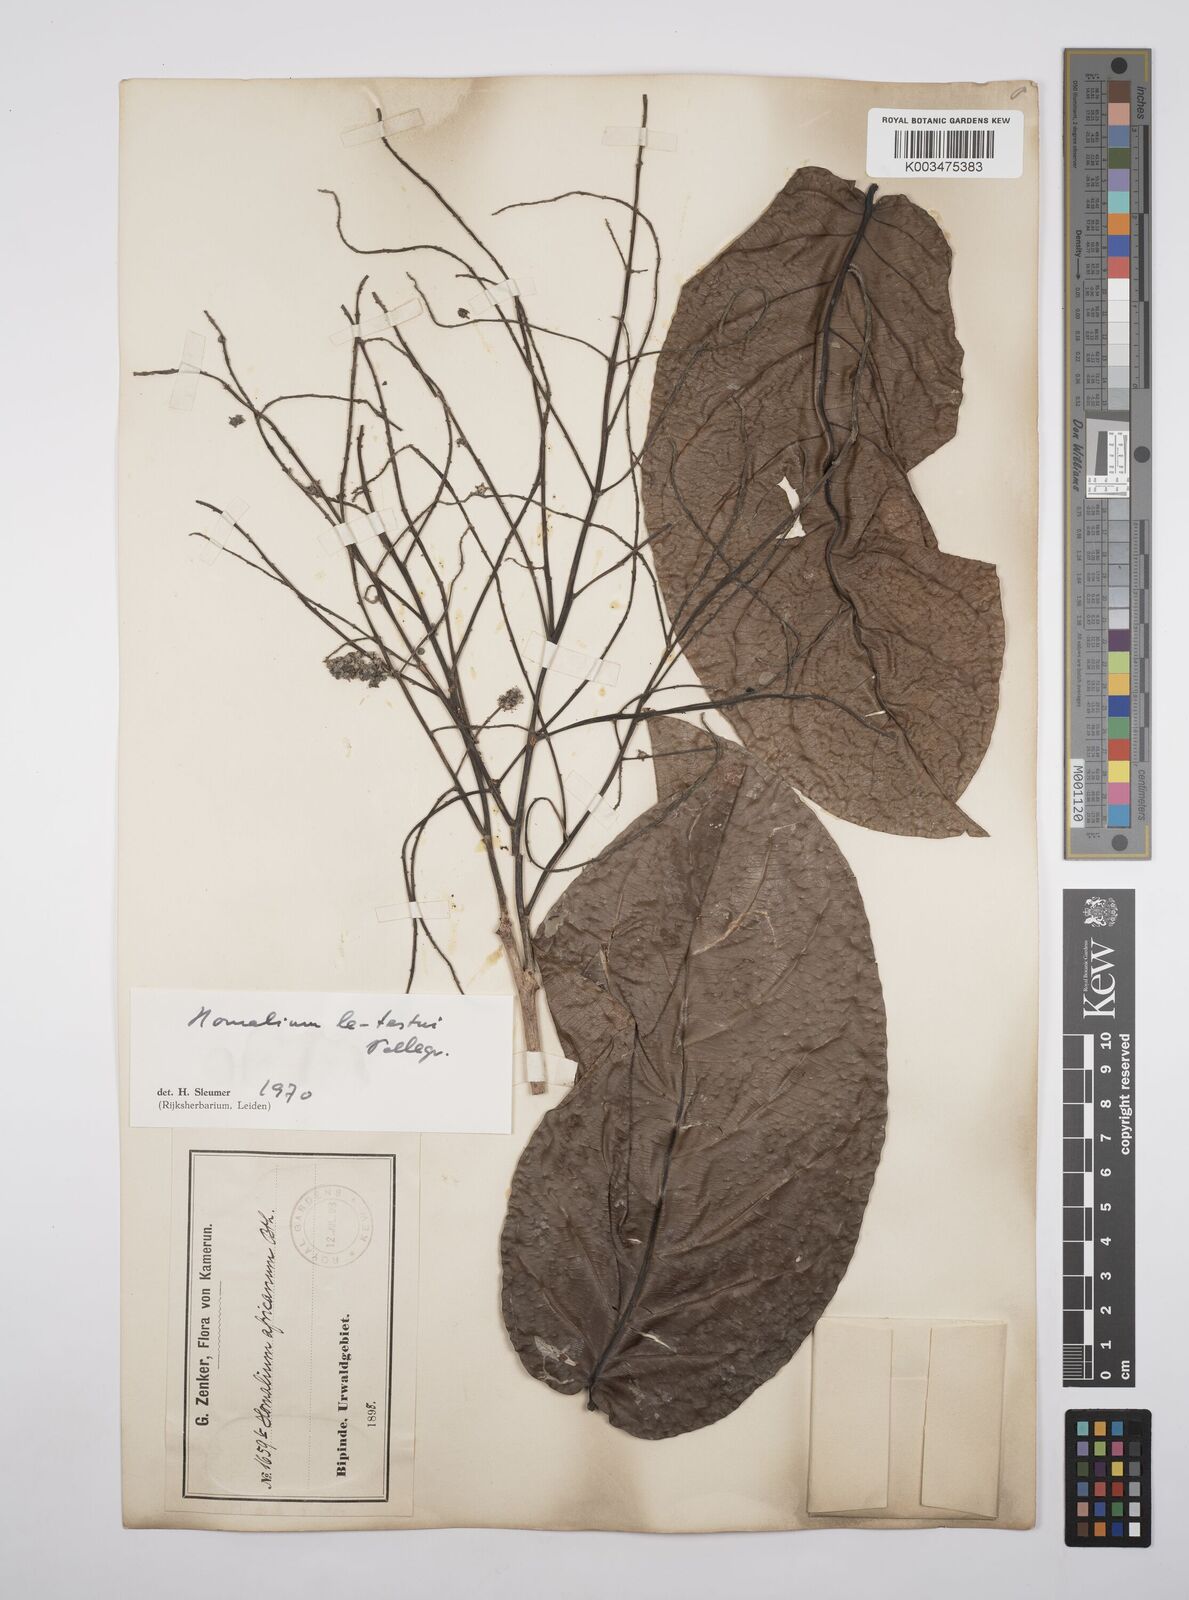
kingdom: Plantae
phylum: Tracheophyta
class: Magnoliopsida
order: Malpighiales
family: Salicaceae
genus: Homalium
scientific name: Homalium letestui
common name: African homalium
